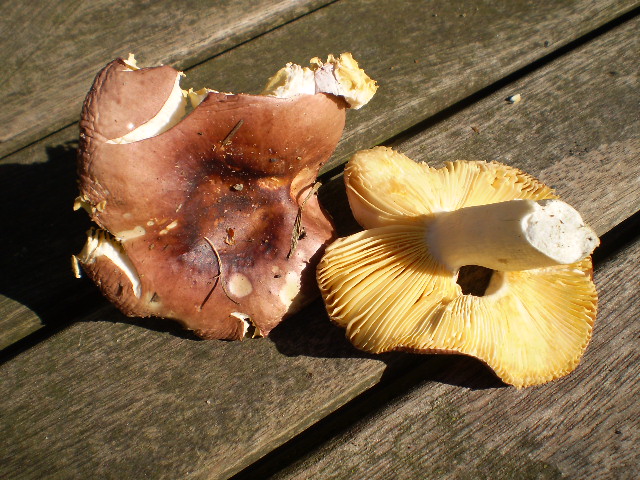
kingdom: Fungi
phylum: Basidiomycota
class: Agaricomycetes
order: Russulales
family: Russulaceae
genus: Russula
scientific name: Russula cessans
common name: fyrre-skørhat
